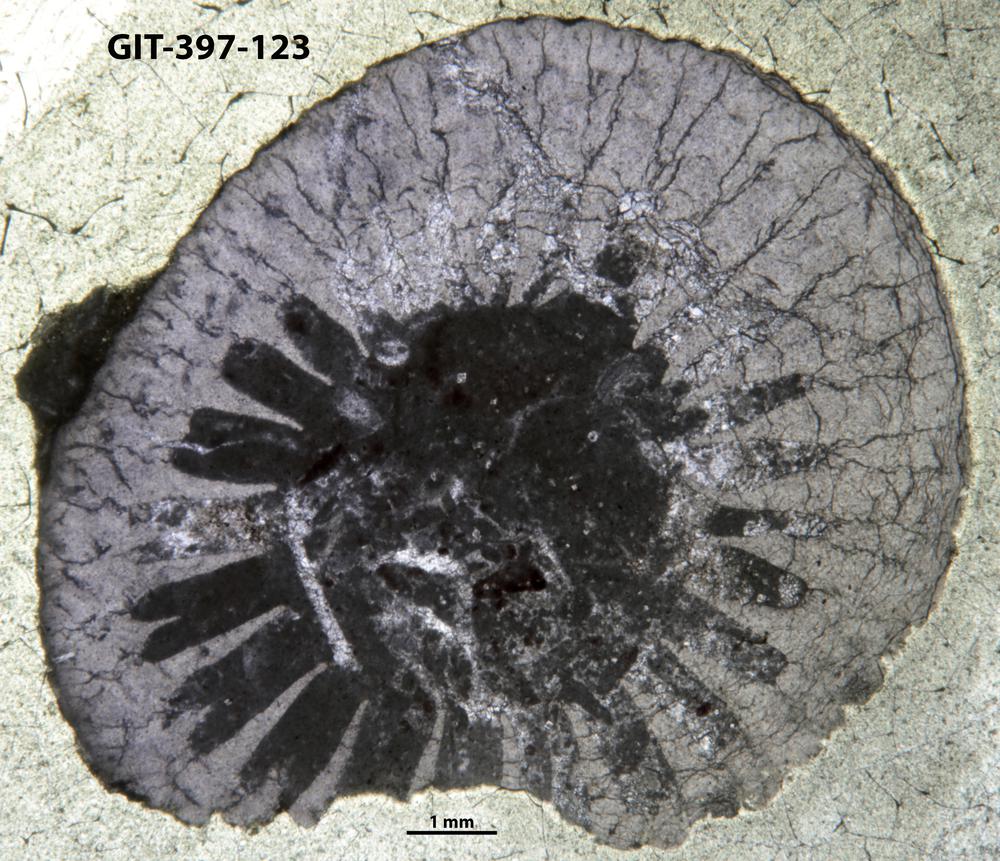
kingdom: Plantae
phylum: Tracheophyta
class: Pinopsida
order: Pinales
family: Cupressaceae
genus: Platycladus
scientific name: Platycladus
